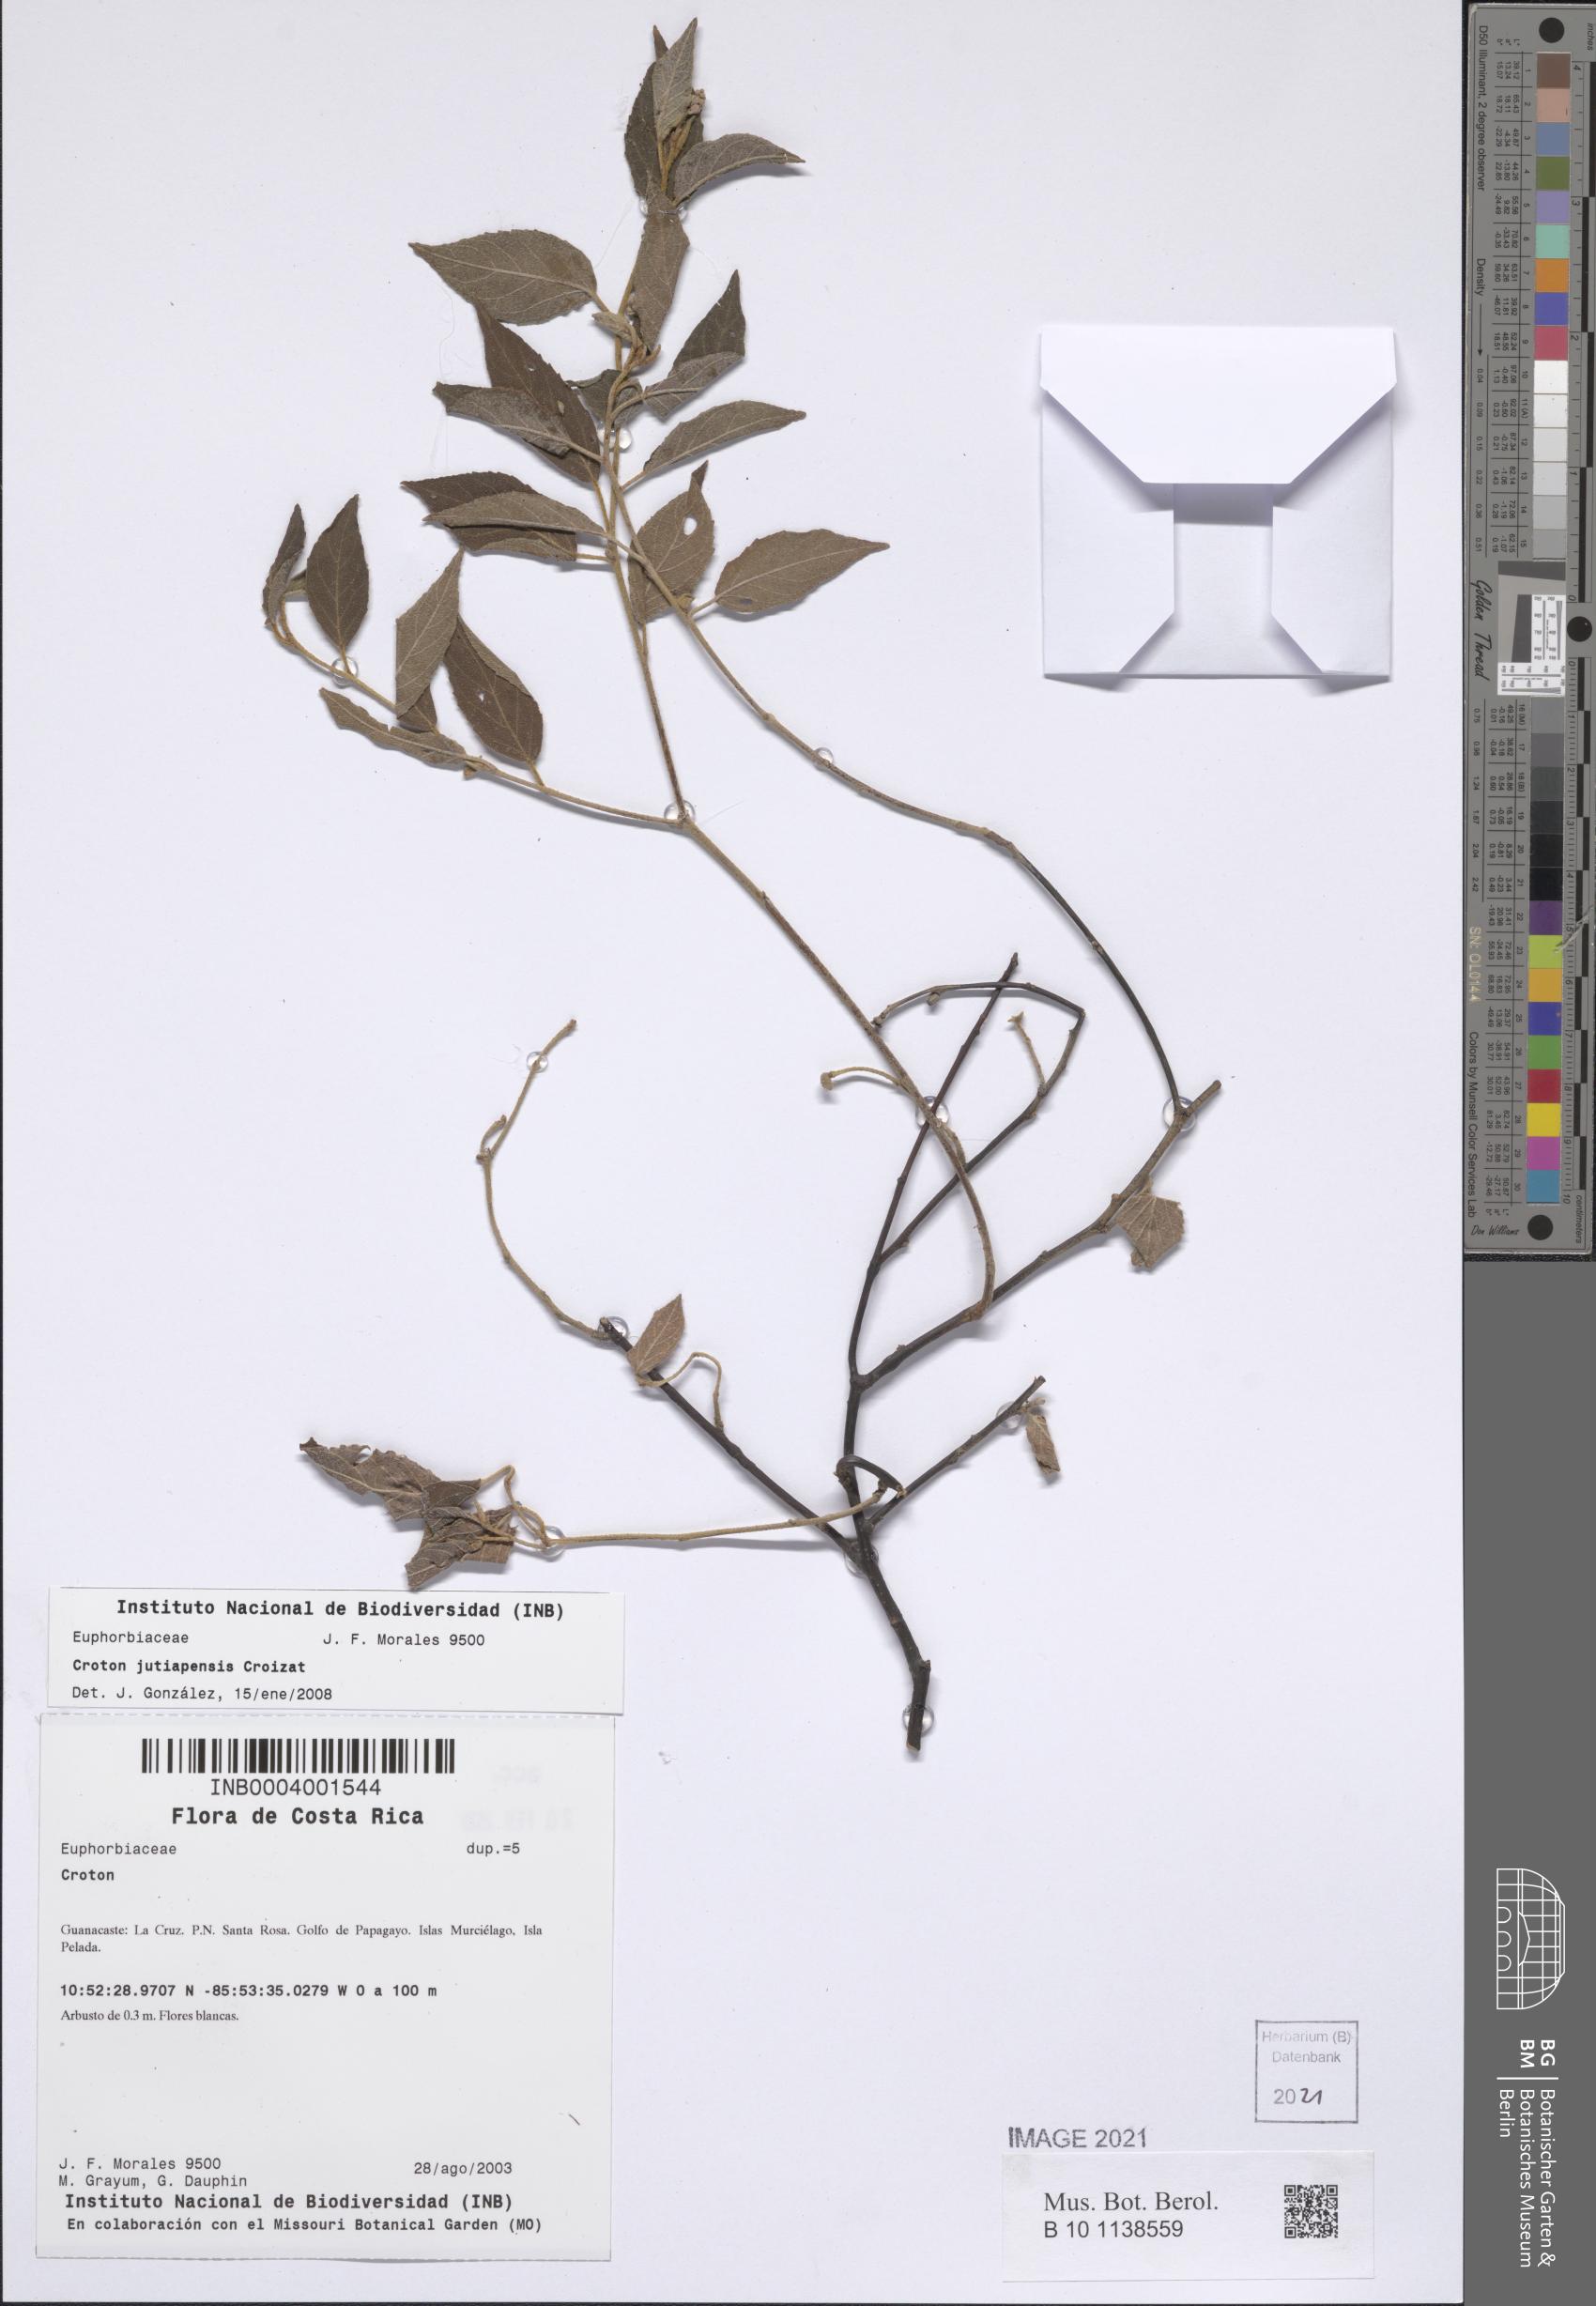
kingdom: Plantae
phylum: Tracheophyta
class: Magnoliopsida
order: Malpighiales
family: Euphorbiaceae
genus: Croton
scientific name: Croton jutiapensis
